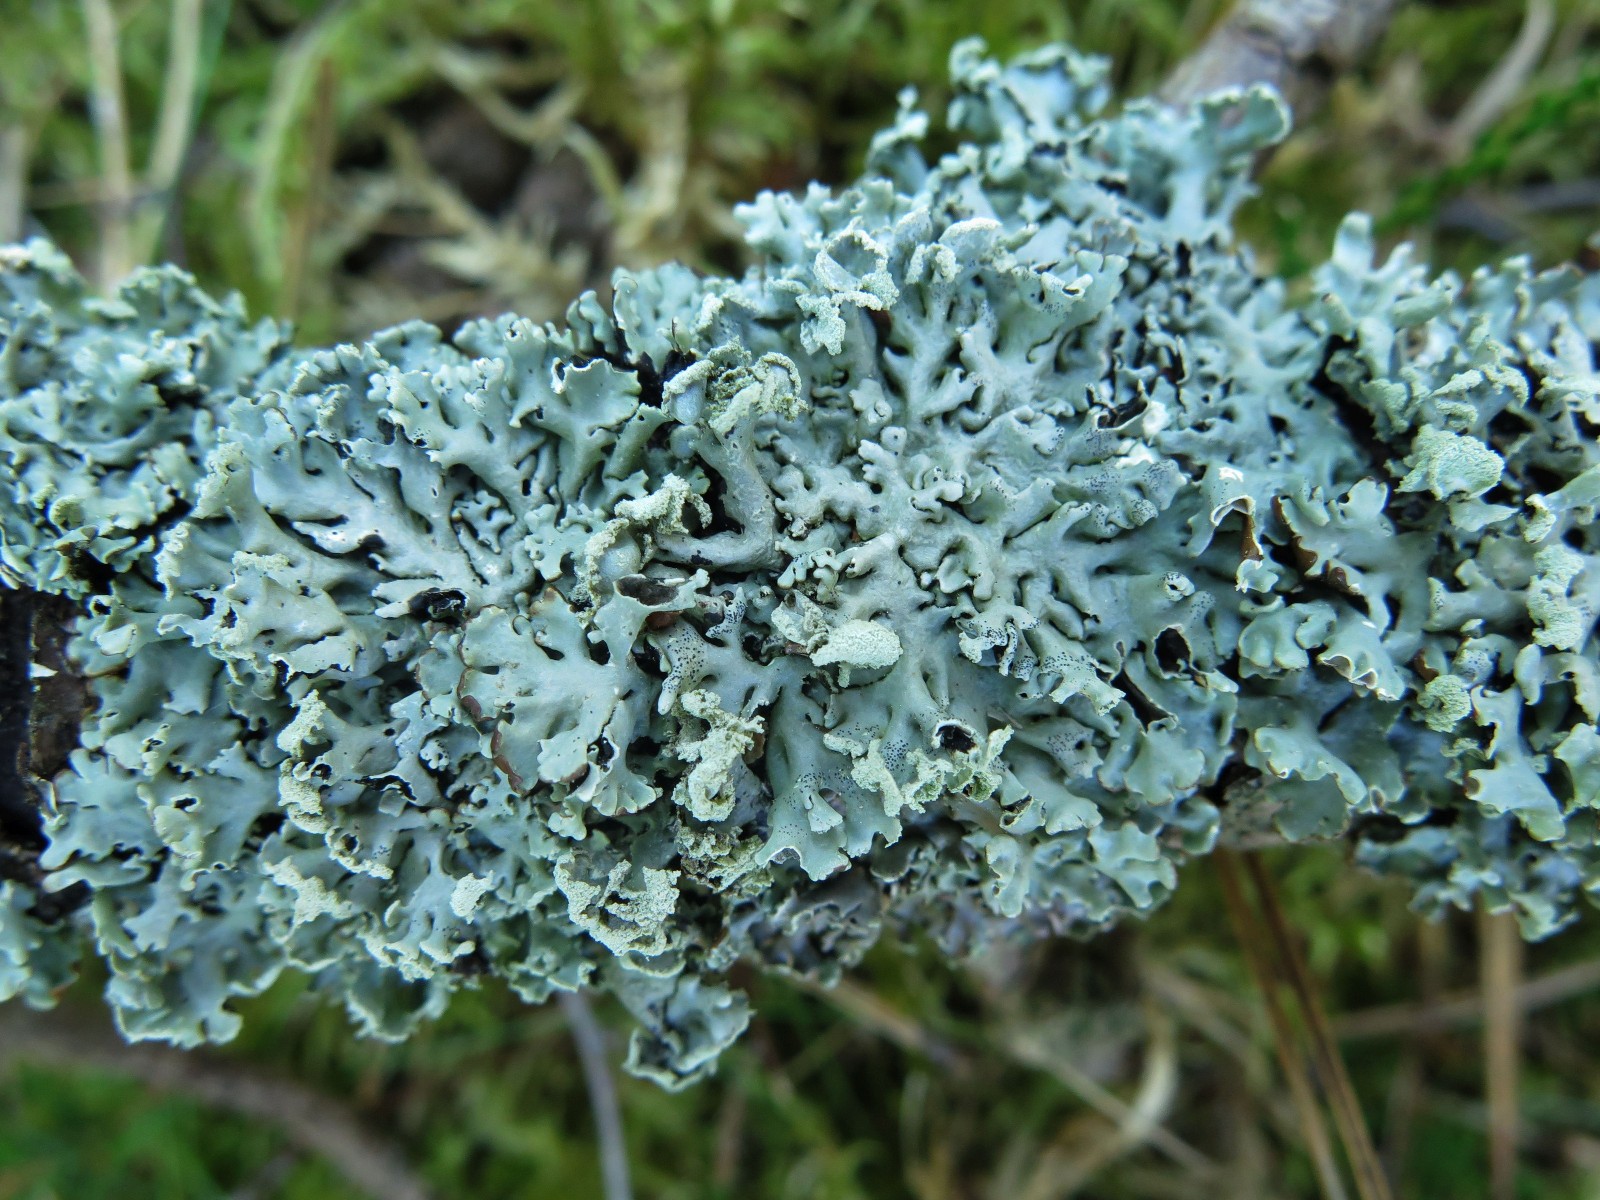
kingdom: Fungi
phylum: Ascomycota
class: Lecanoromycetes
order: Lecanorales
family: Parmeliaceae
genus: Hypogymnia
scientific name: Hypogymnia physodes
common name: almindelig kvistlav
